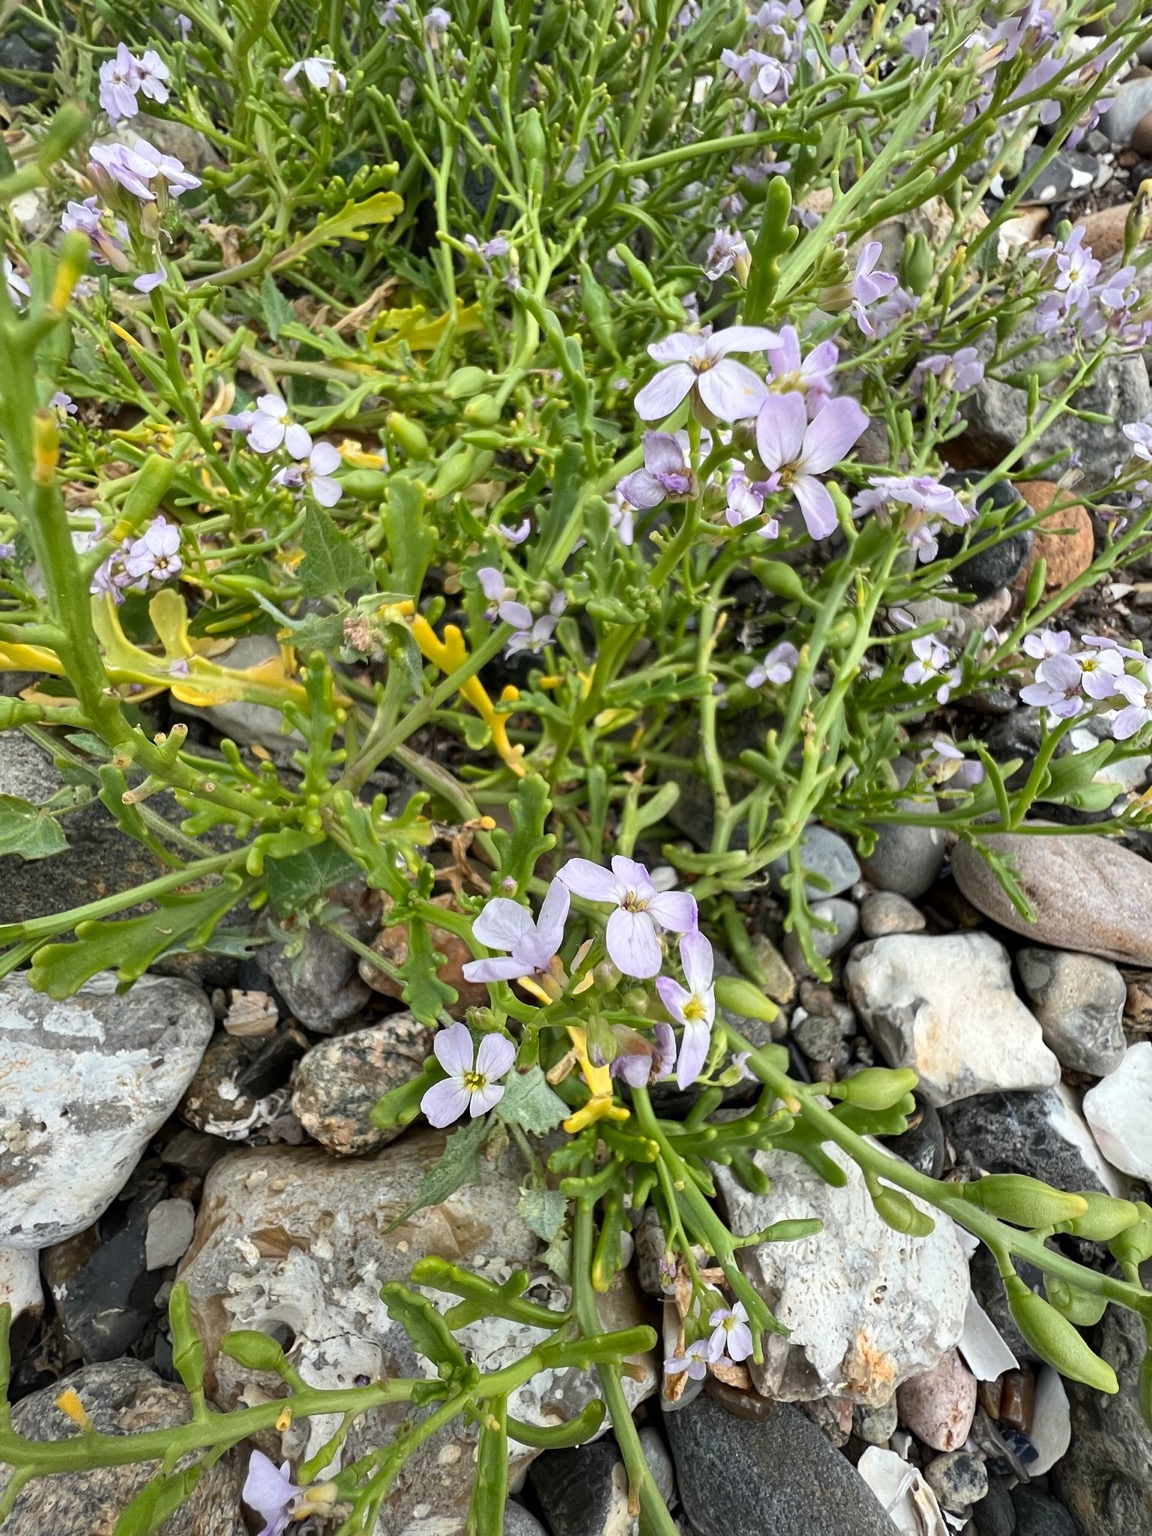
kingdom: Plantae
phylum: Tracheophyta
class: Magnoliopsida
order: Brassicales
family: Brassicaceae
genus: Cakile
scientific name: Cakile maritima
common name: Strandsennep
